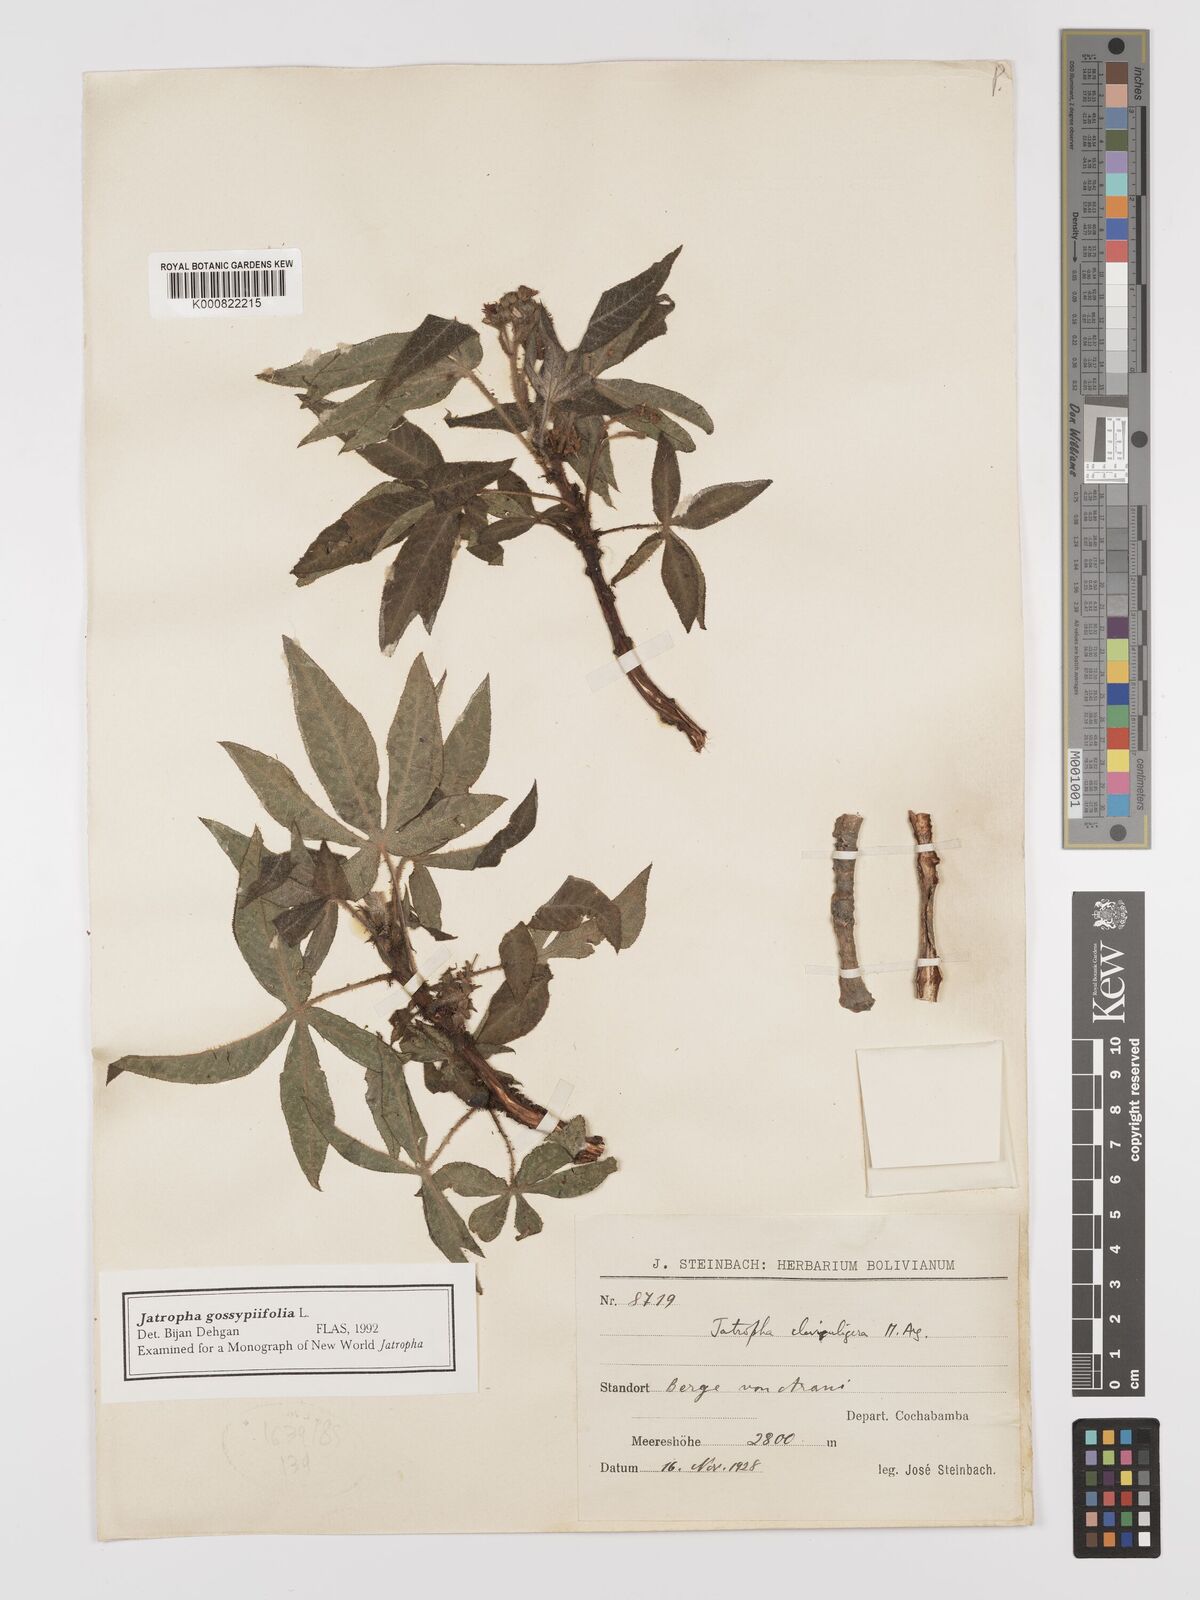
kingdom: Plantae
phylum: Tracheophyta
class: Magnoliopsida
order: Malpighiales
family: Euphorbiaceae
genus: Jatropha
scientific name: Jatropha gossypiifolia
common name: Bellyache bush
